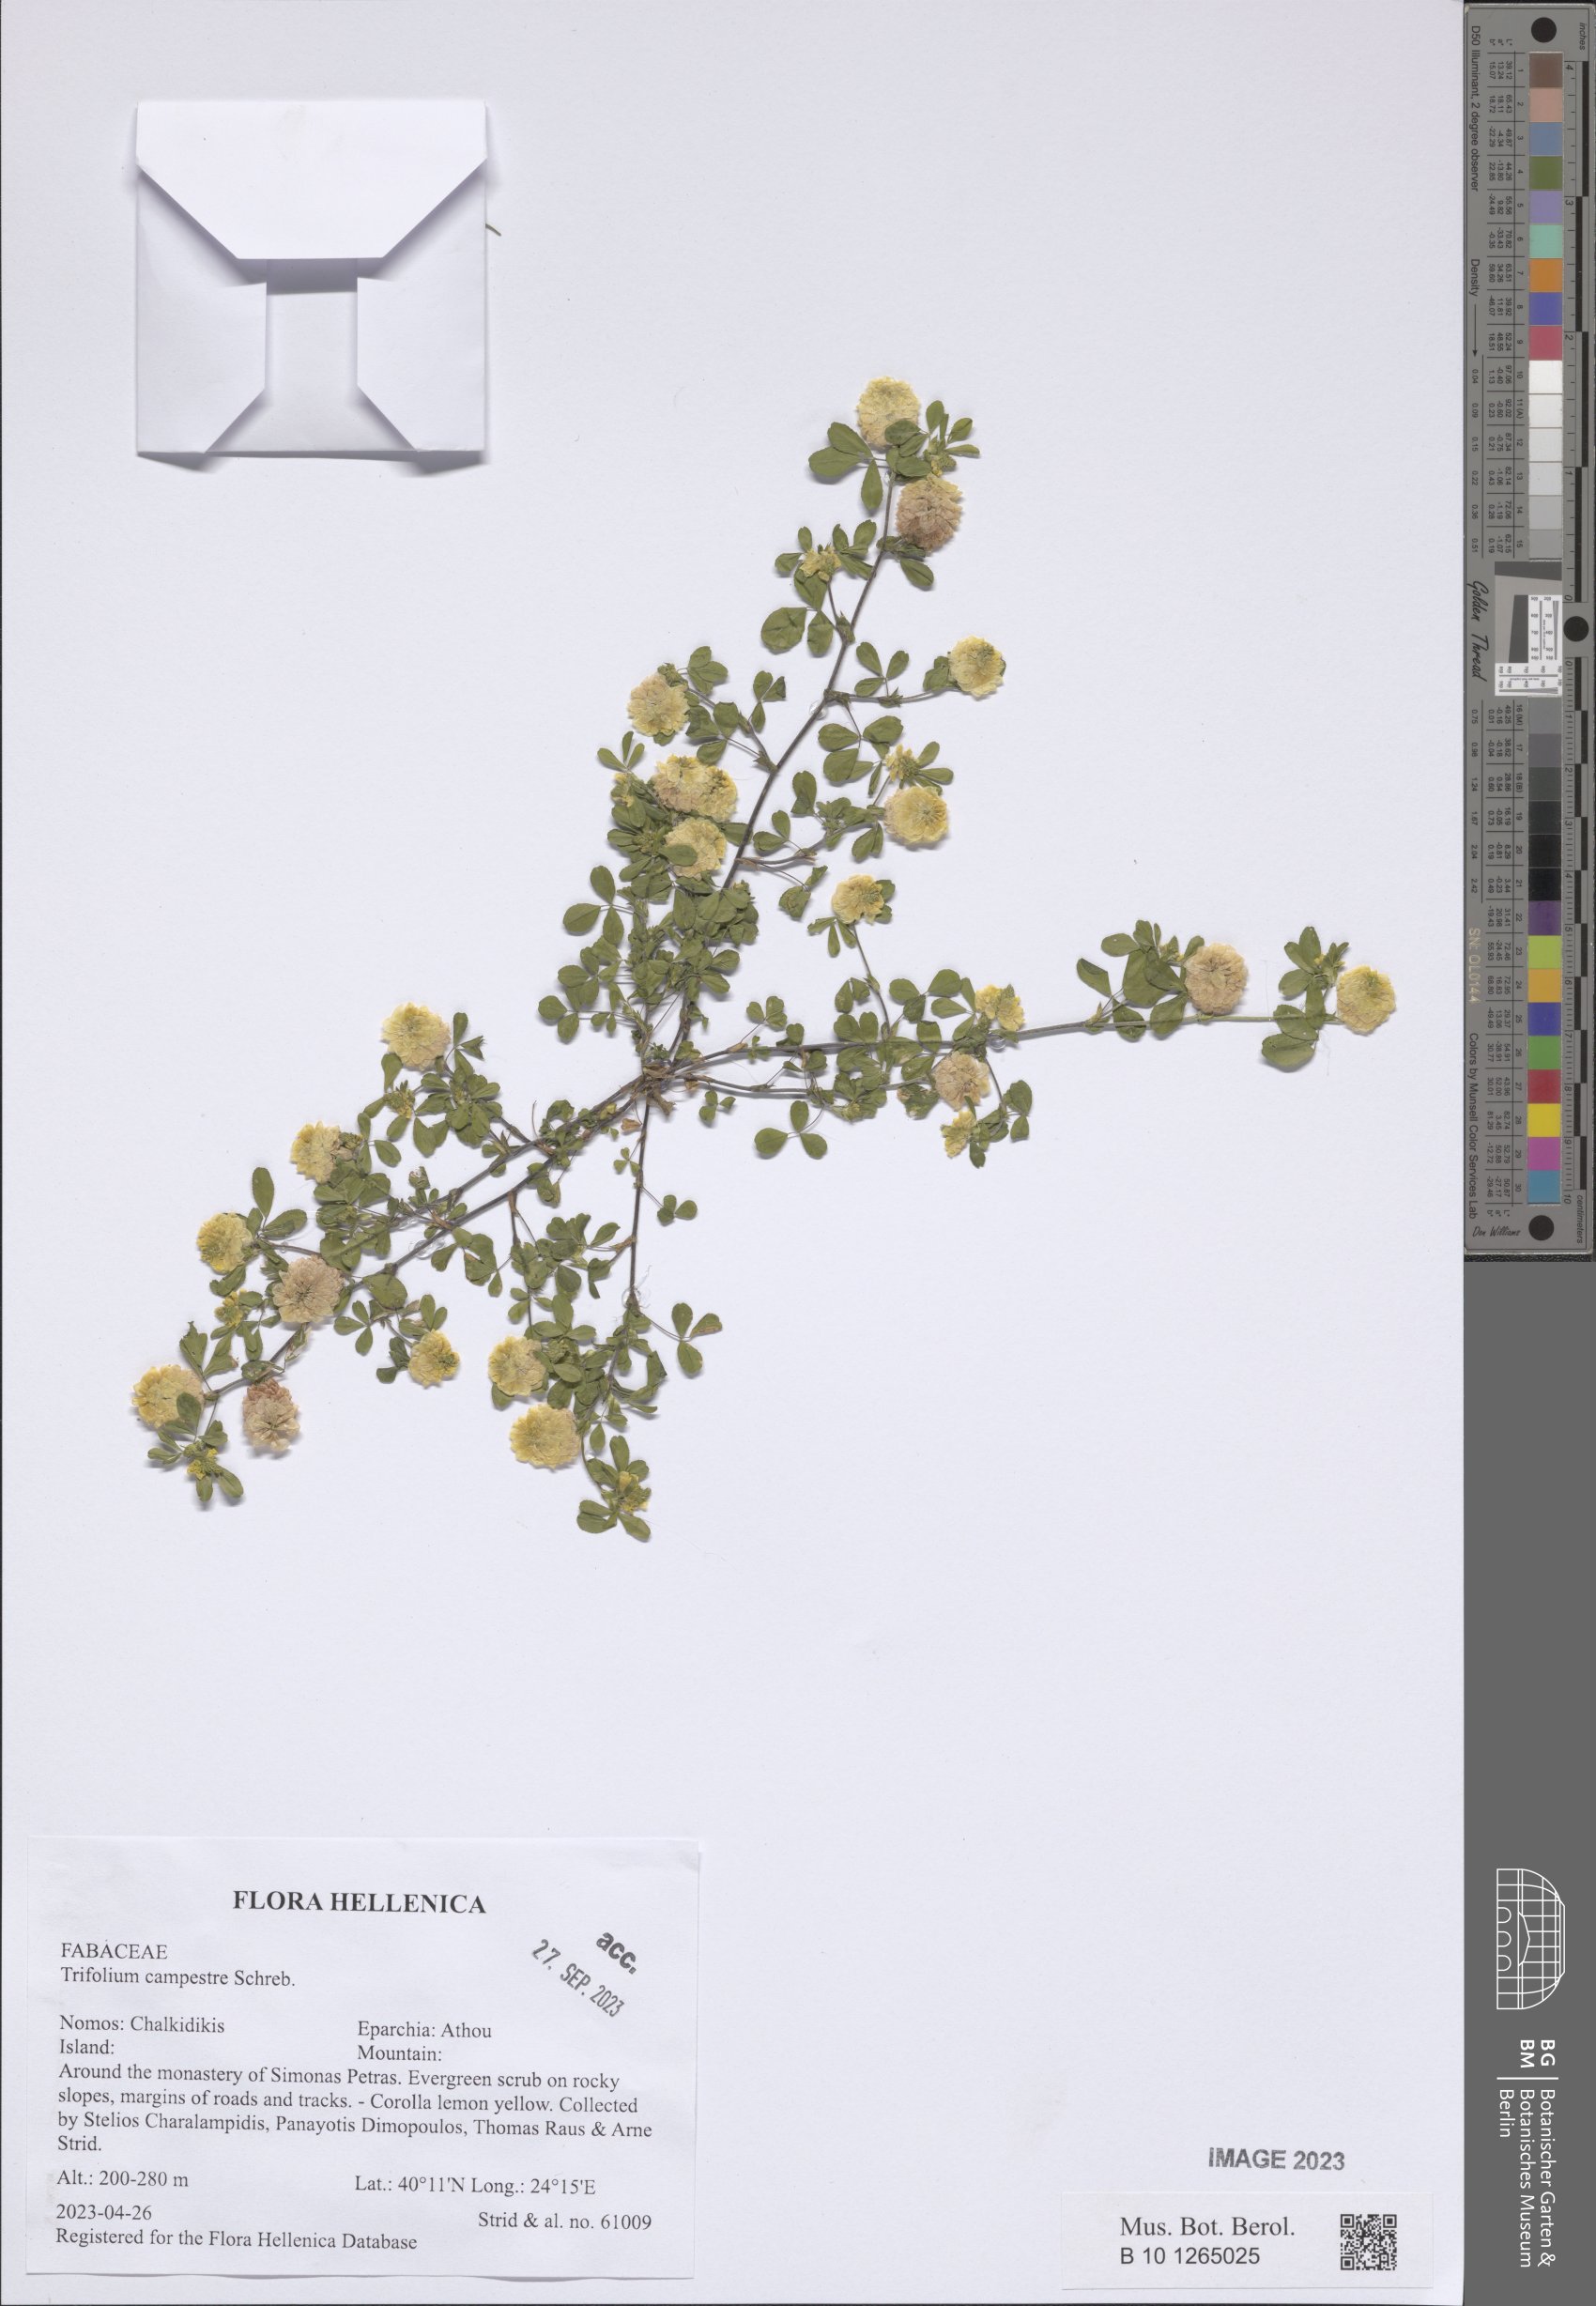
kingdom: Plantae
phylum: Tracheophyta
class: Magnoliopsida
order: Fabales
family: Fabaceae
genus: Trifolium
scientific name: Trifolium campestre
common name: Field clover
